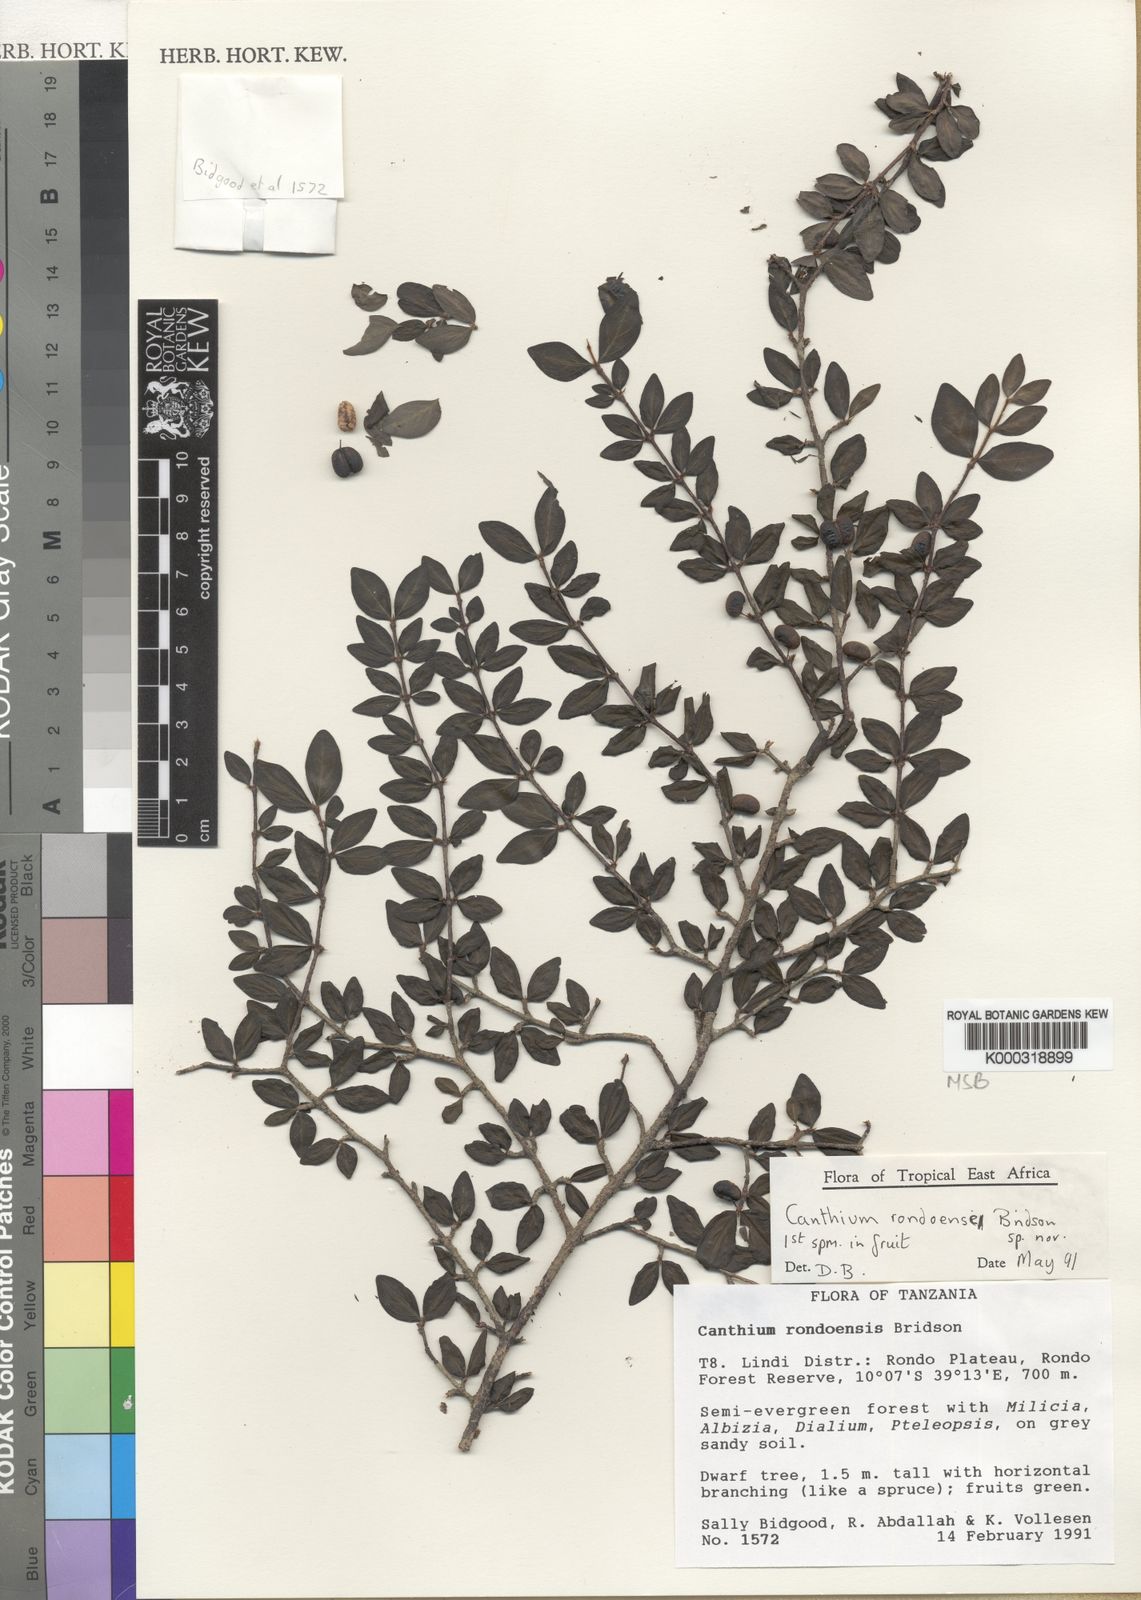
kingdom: Plantae
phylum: Tracheophyta
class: Magnoliopsida
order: Gentianales
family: Rubiaceae
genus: Afrocanthium
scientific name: Afrocanthium rondoense
